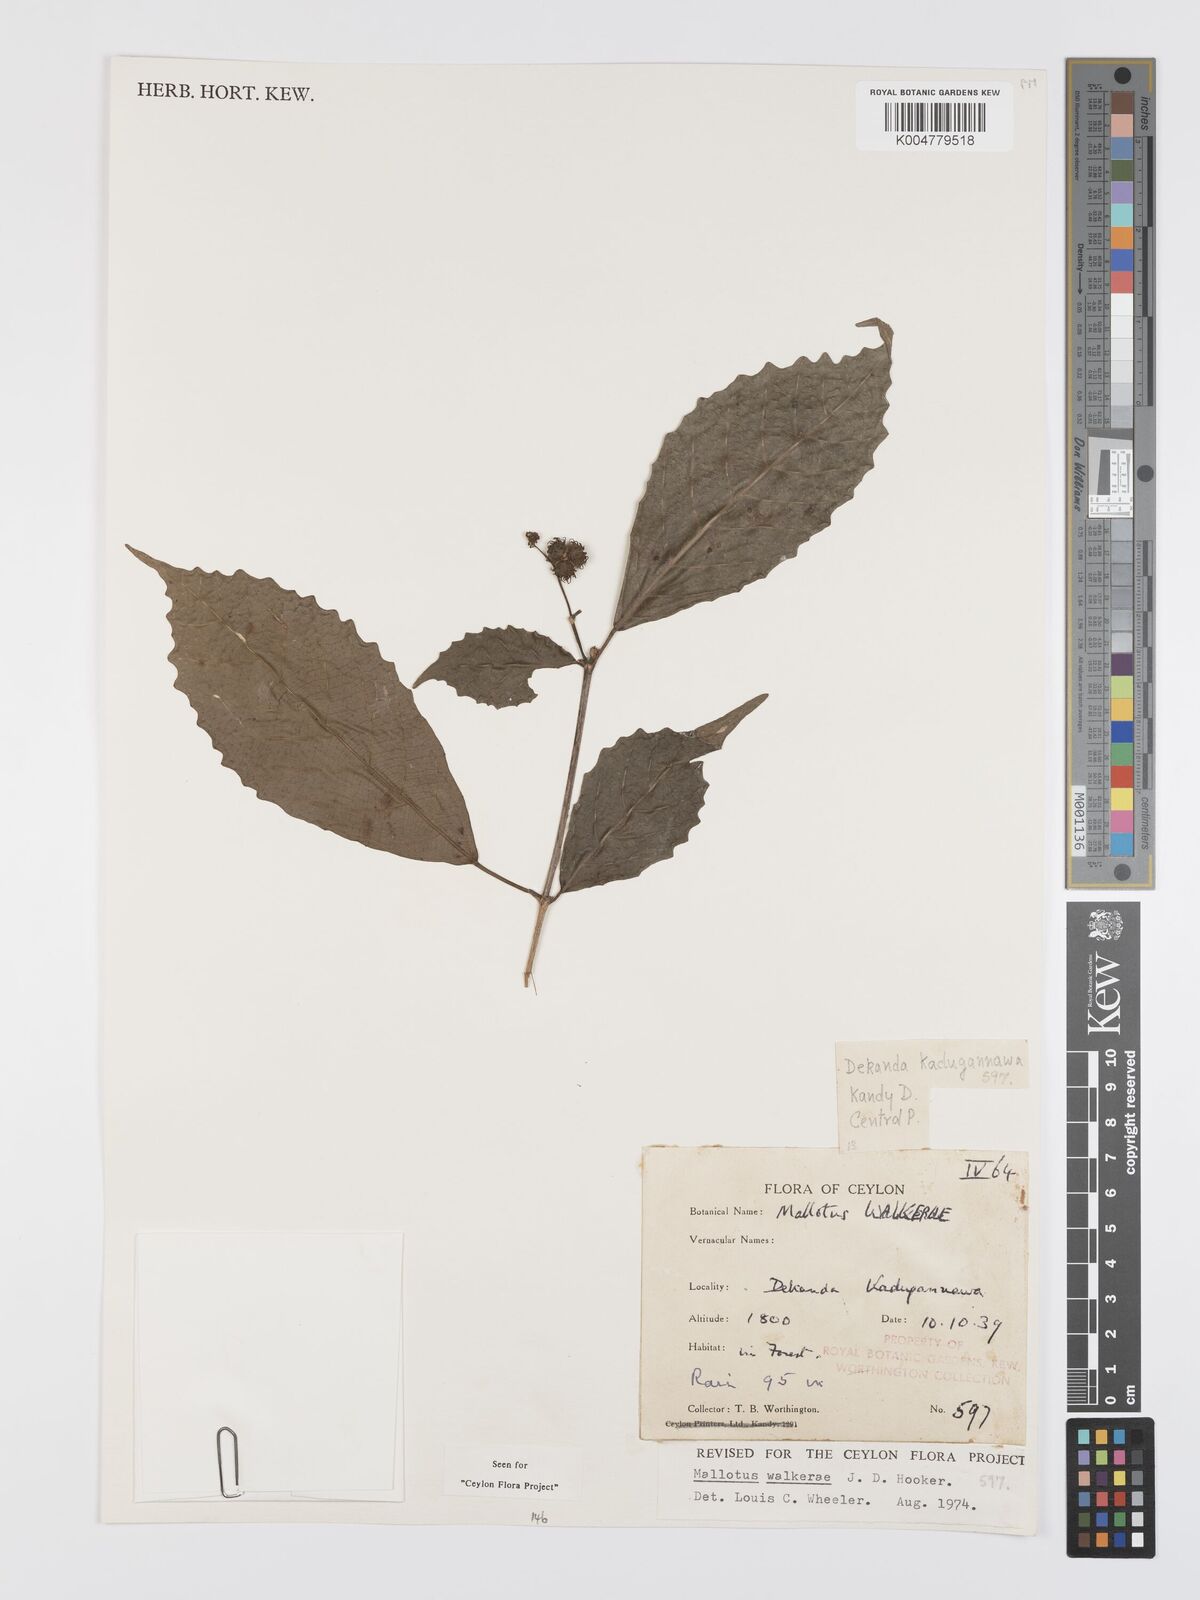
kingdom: Plantae
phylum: Tracheophyta
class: Magnoliopsida
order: Malpighiales
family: Euphorbiaceae
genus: Mallotus
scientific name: Mallotus resinosus
